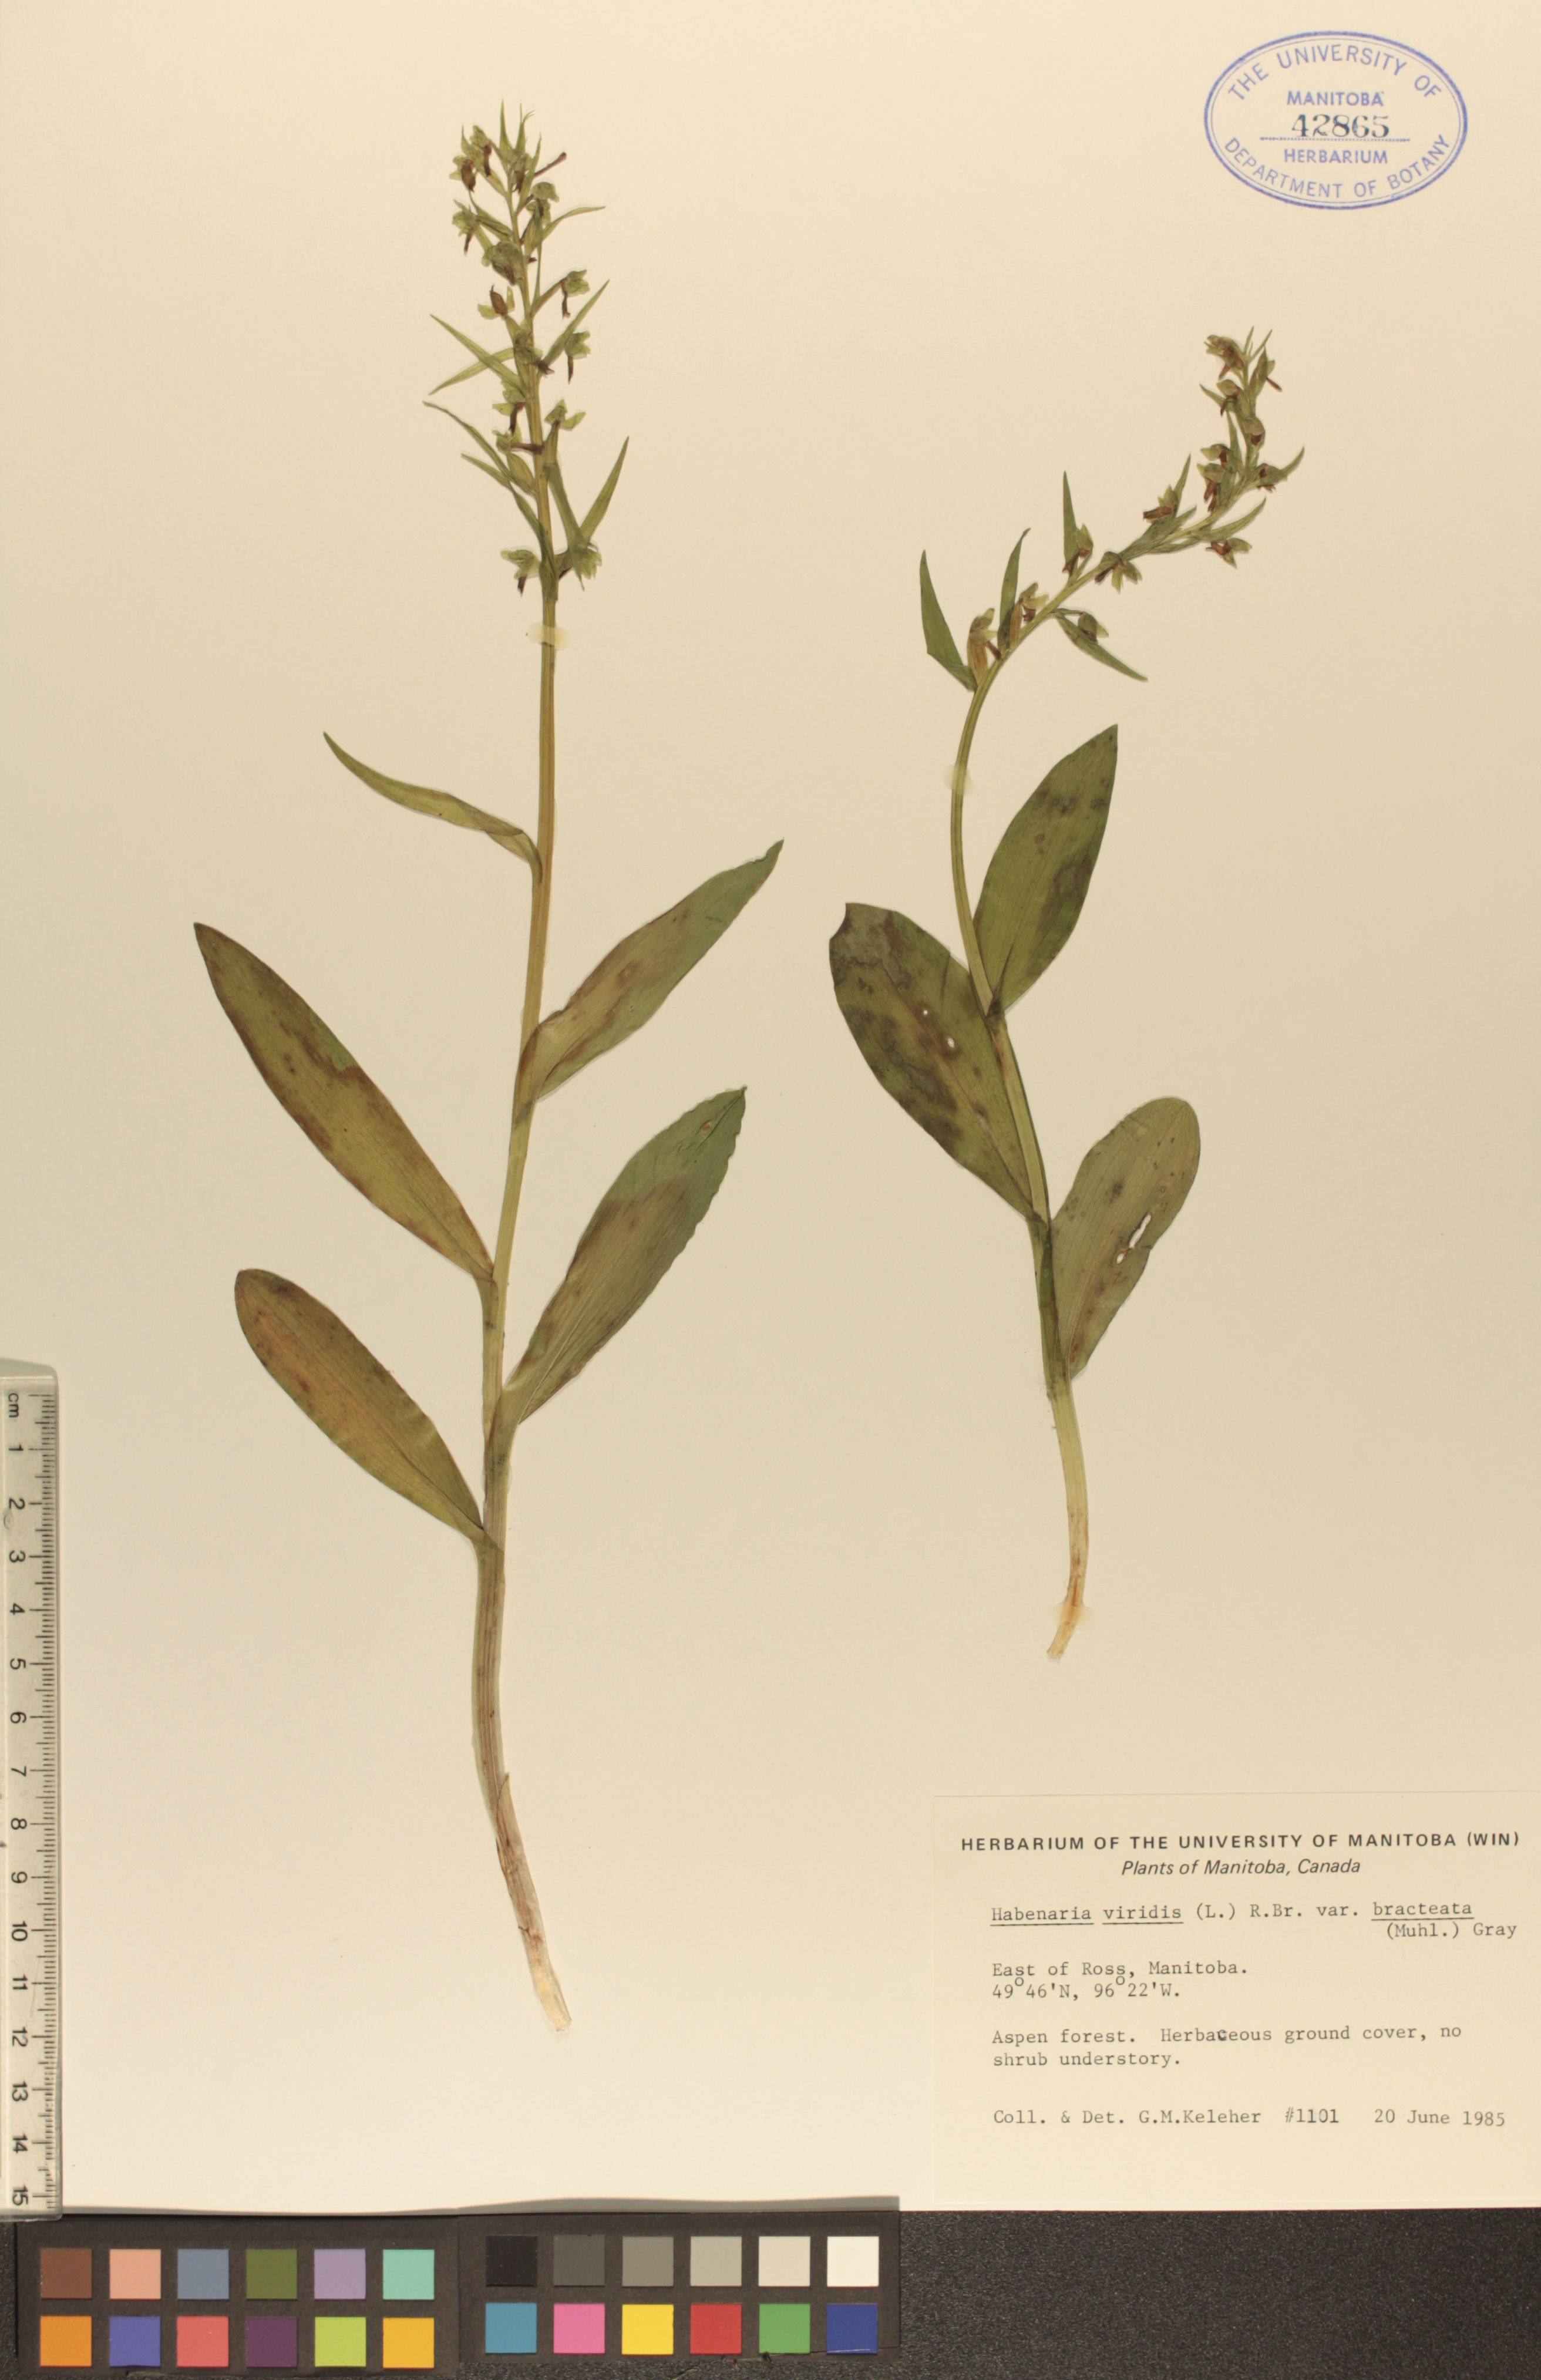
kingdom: Plantae
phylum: Tracheophyta
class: Liliopsida
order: Asparagales
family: Orchidaceae
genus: Dactylorhiza
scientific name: Dactylorhiza viridis
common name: Longbract frog orchid
